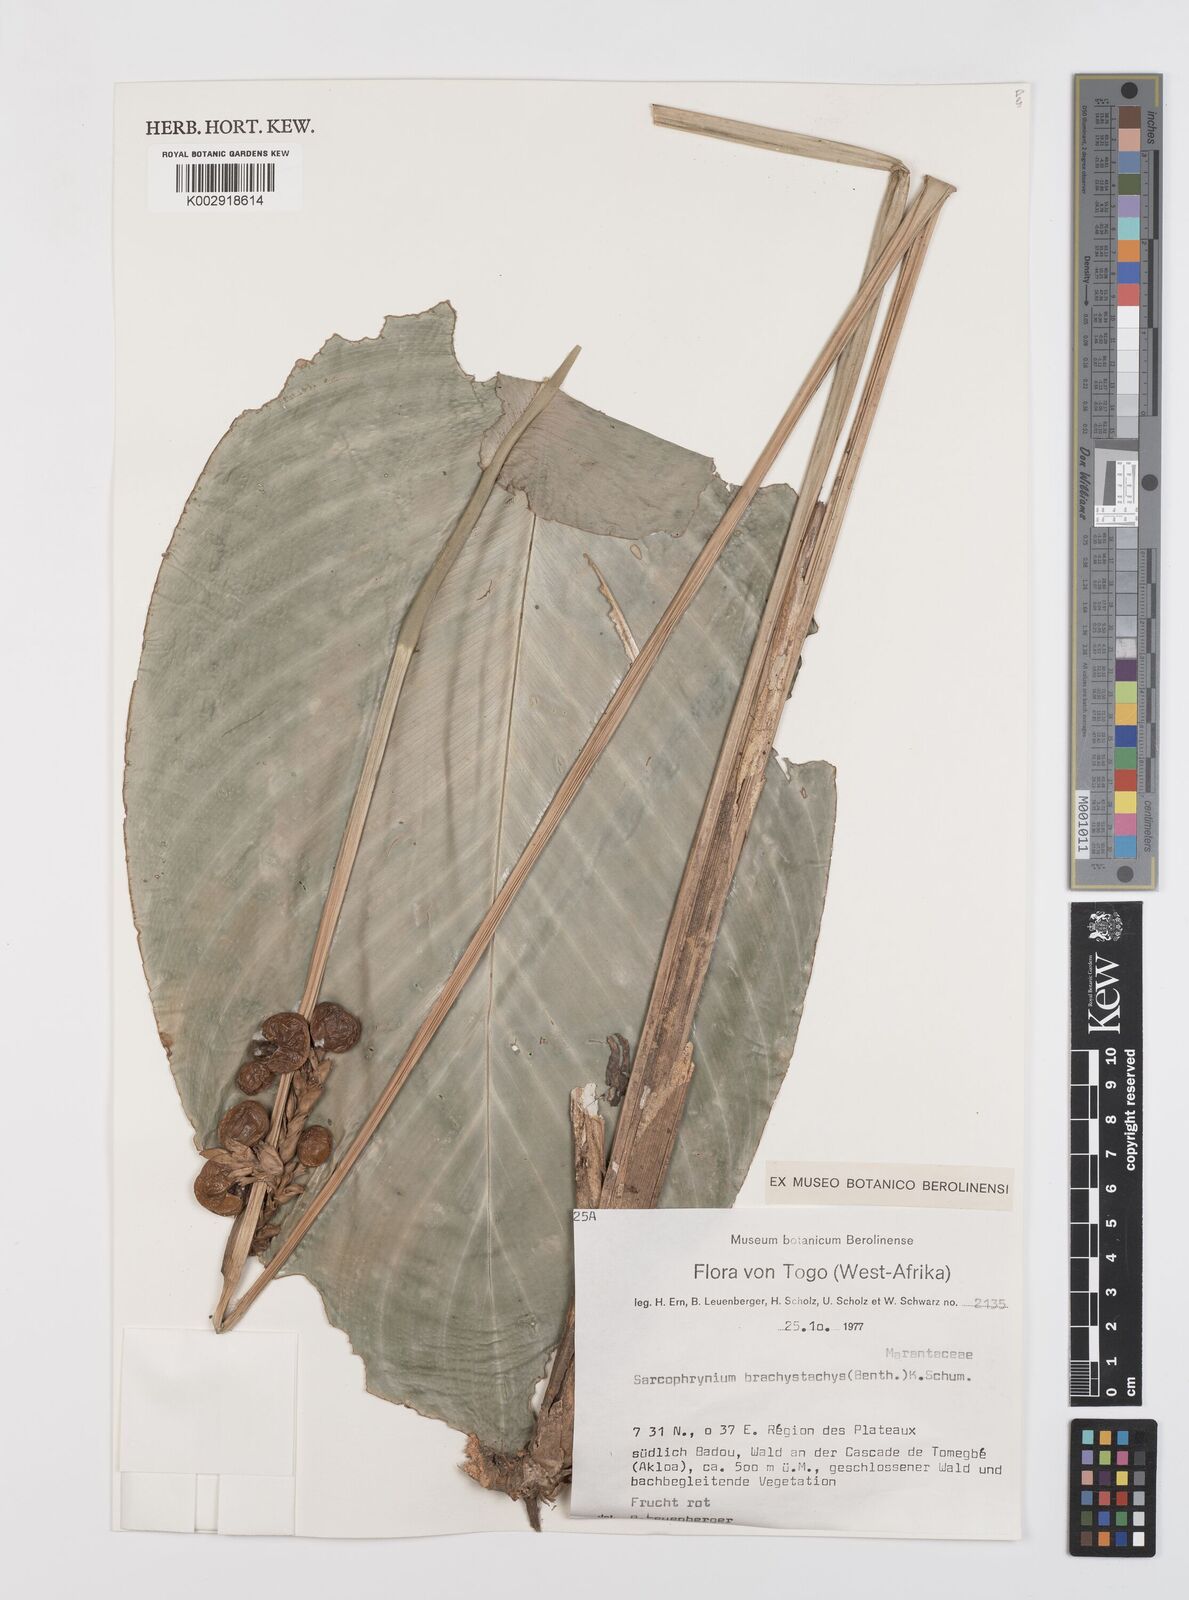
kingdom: Plantae
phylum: Tracheophyta
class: Liliopsida
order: Zingiberales
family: Marantaceae
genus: Sarcophrynium
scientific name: Sarcophrynium brachystachyum
